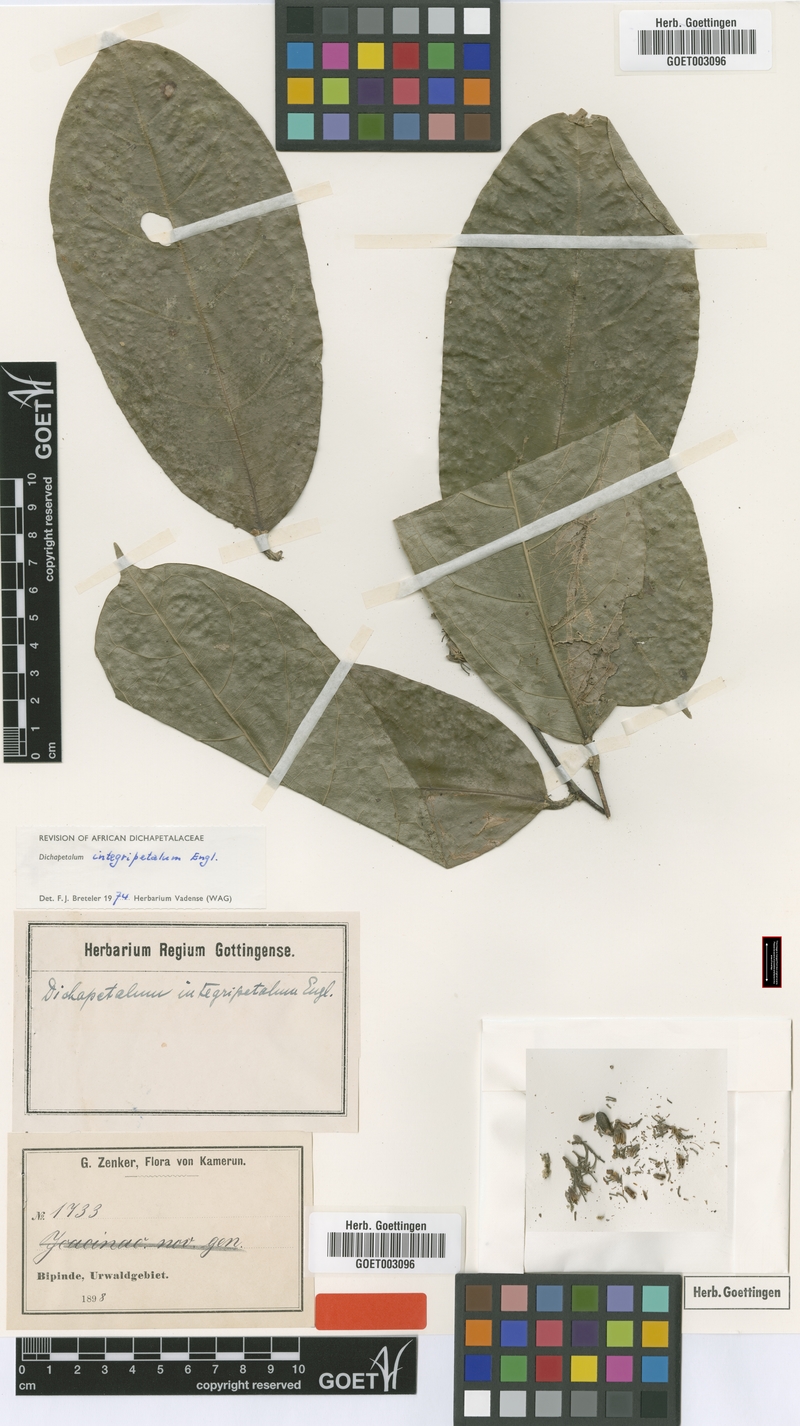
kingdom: Plantae
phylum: Tracheophyta
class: Magnoliopsida
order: Malpighiales
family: Dichapetalaceae
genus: Dichapetalum
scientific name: Dichapetalum integripetalum
